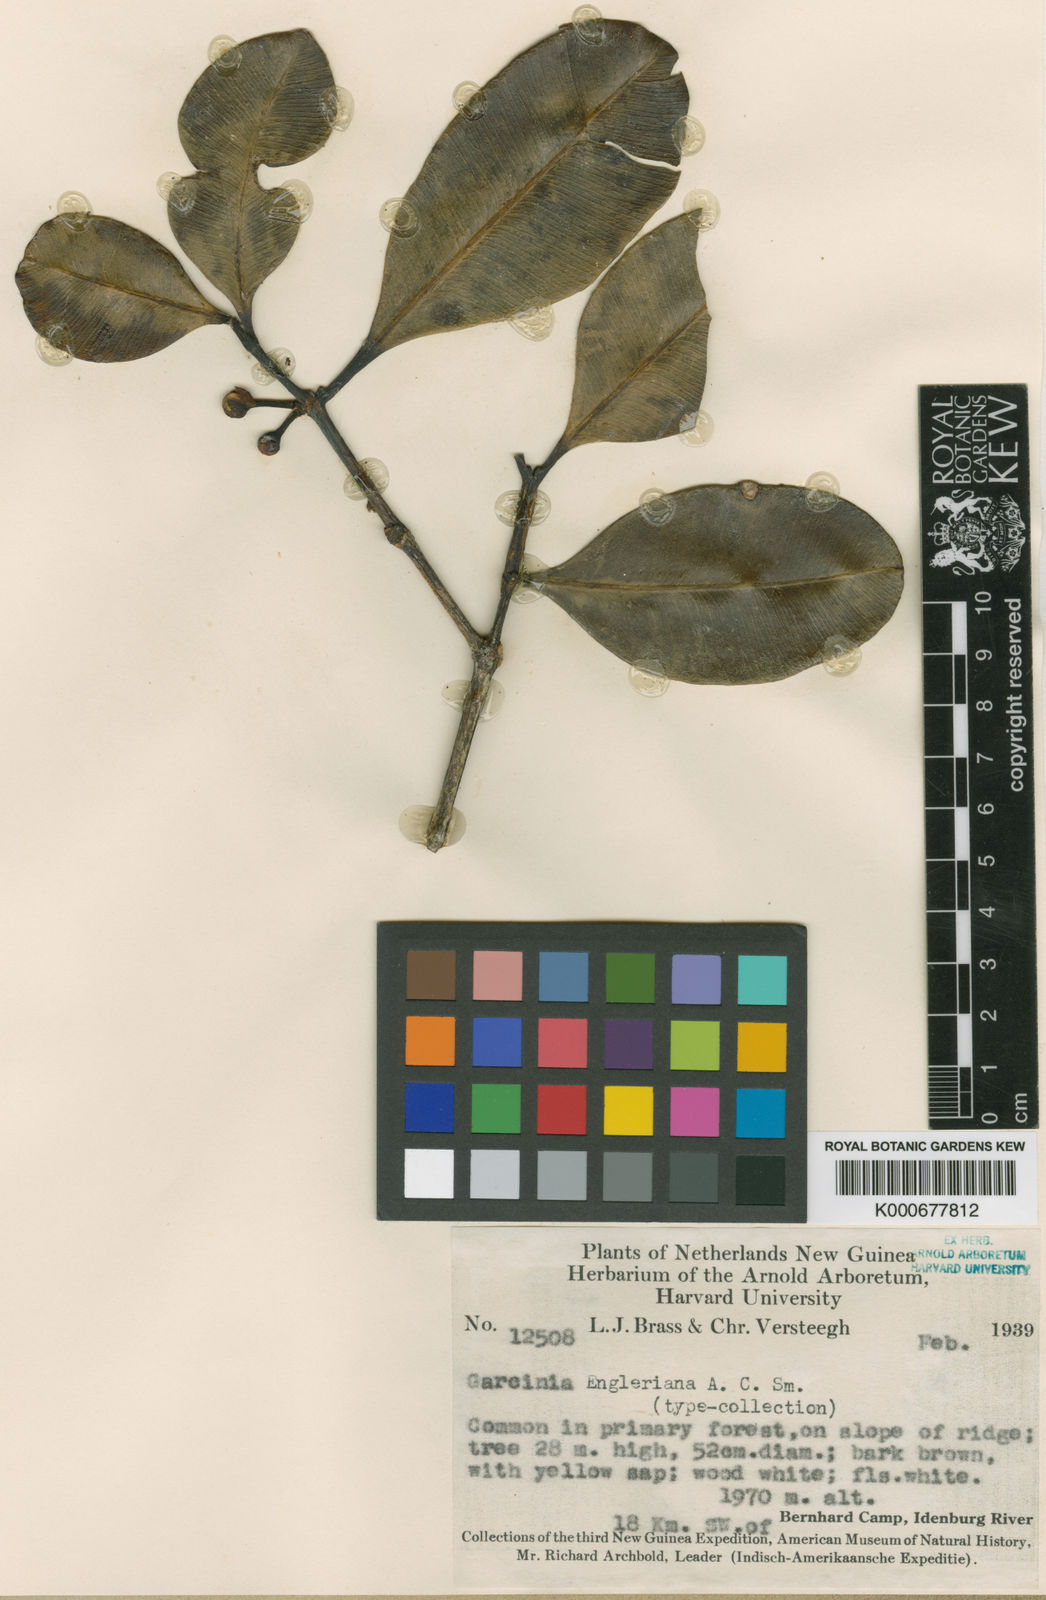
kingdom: Plantae
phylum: Tracheophyta
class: Magnoliopsida
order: Malpighiales
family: Clusiaceae
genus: Garcinia
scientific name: Garcinia engleriana
